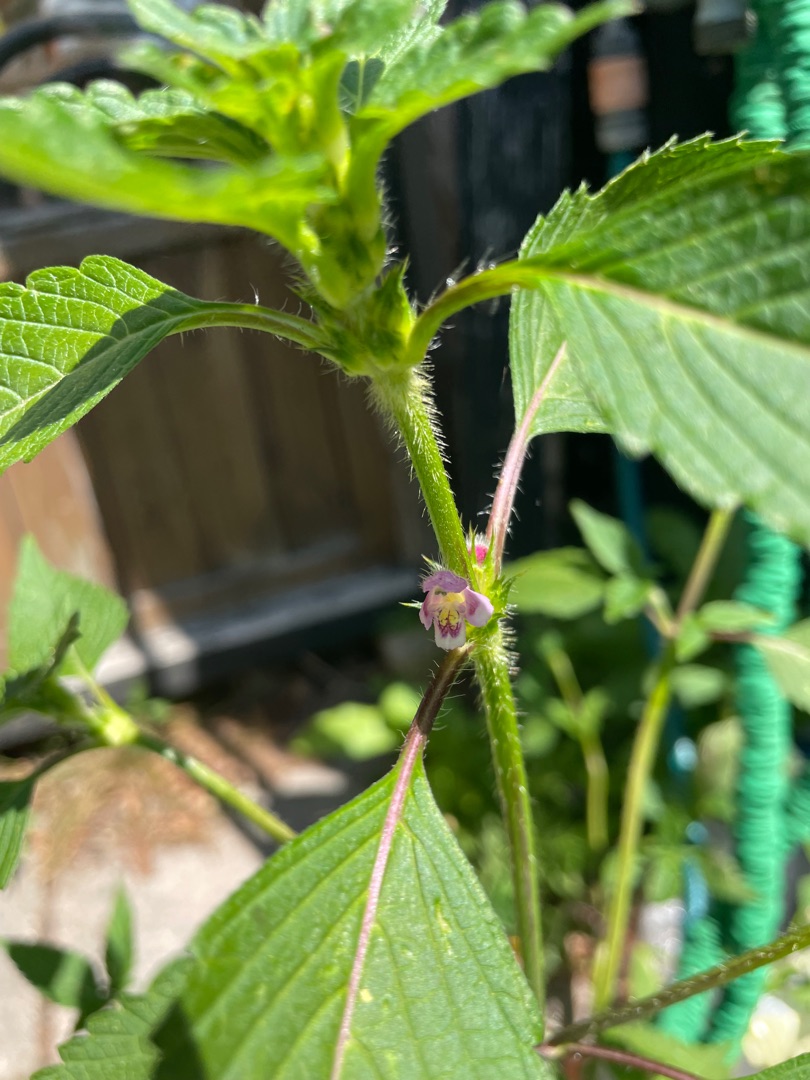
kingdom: Plantae
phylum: Tracheophyta
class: Magnoliopsida
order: Lamiales
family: Lamiaceae
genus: Galeopsis
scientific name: Galeopsis tetrahit
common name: Almindelig hanekro
